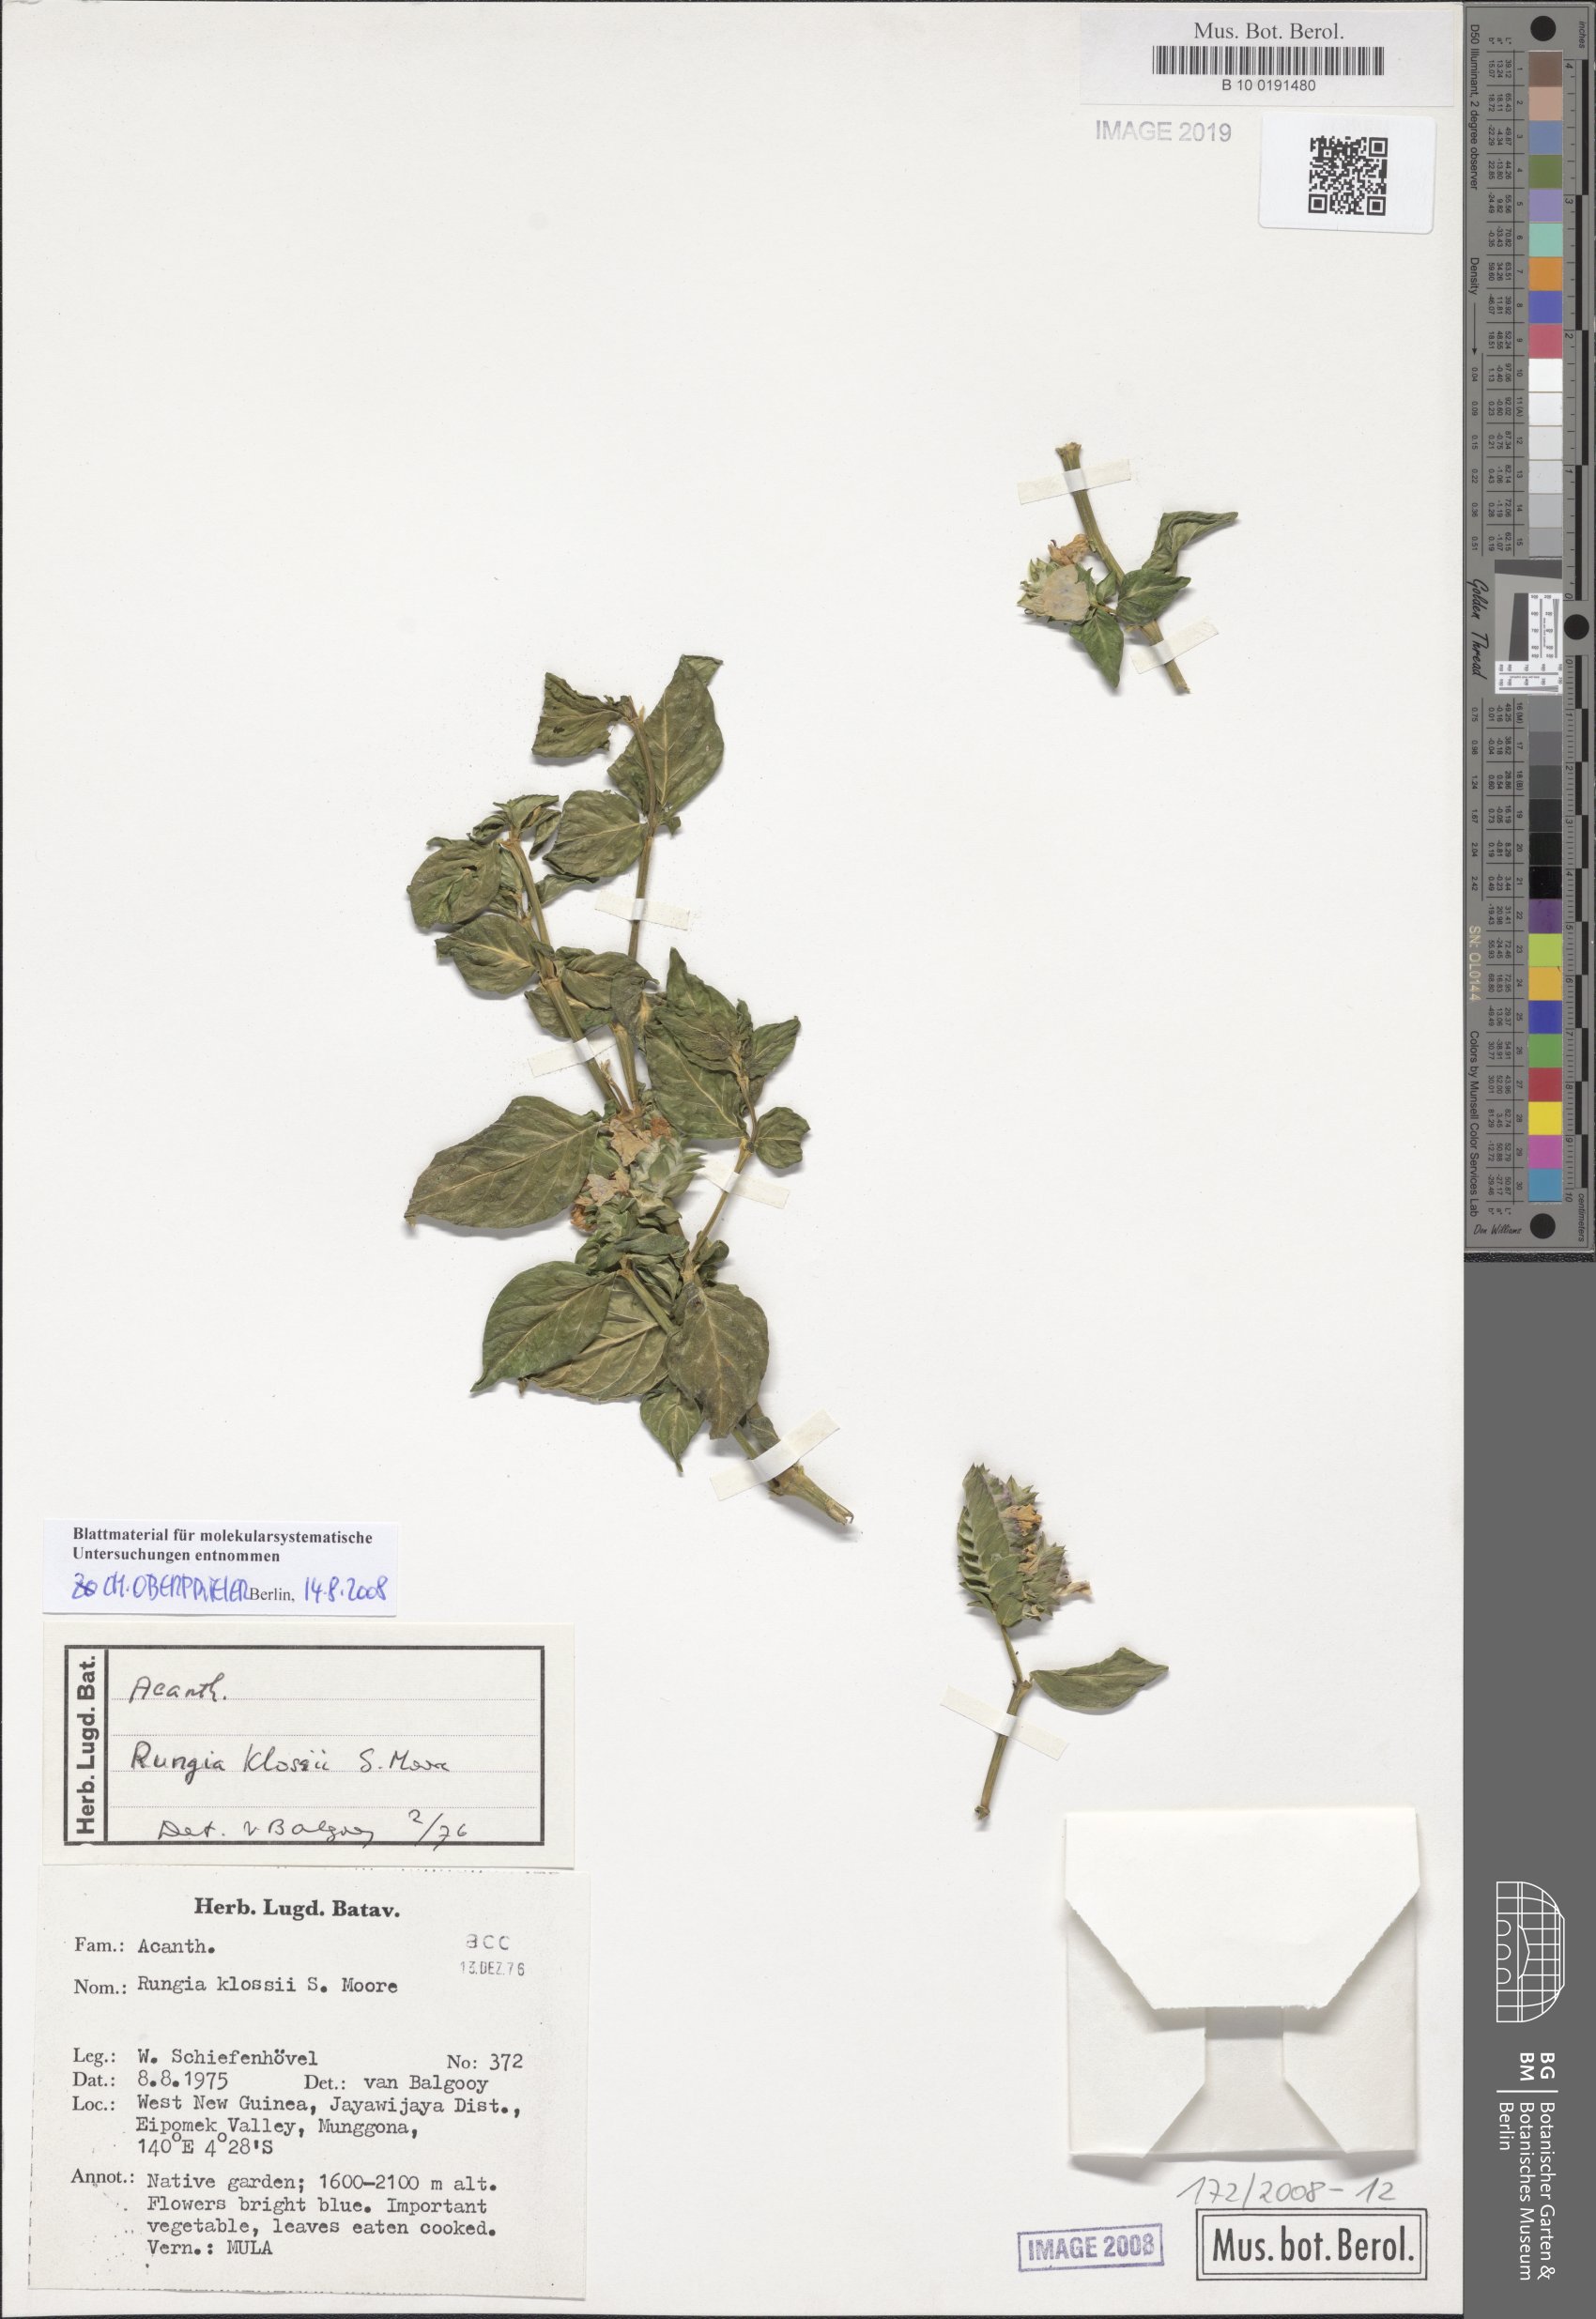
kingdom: Plantae
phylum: Tracheophyta
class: Magnoliopsida
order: Lamiales
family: Acanthaceae
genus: Rungia
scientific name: Rungia klossii
